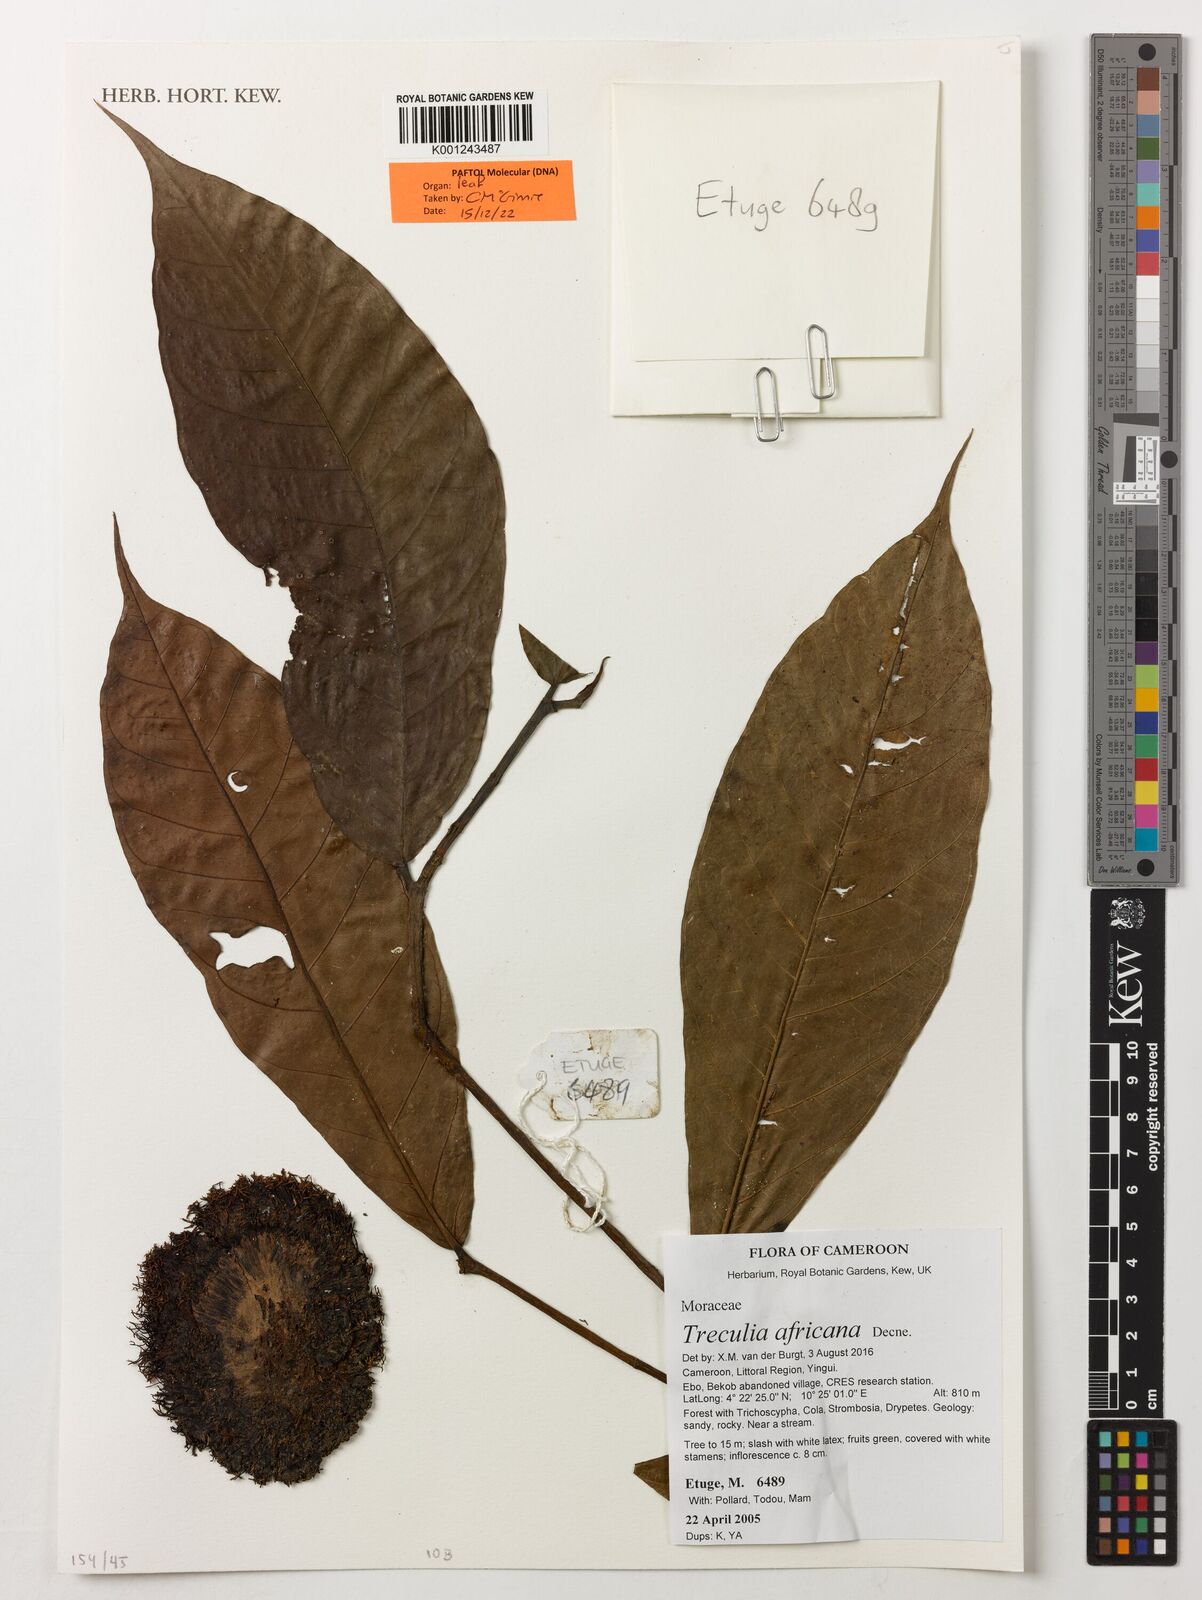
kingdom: Plantae
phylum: Tracheophyta
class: Magnoliopsida
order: Rosales
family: Moraceae
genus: Treculia
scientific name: Treculia africana
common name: African breadfruit
